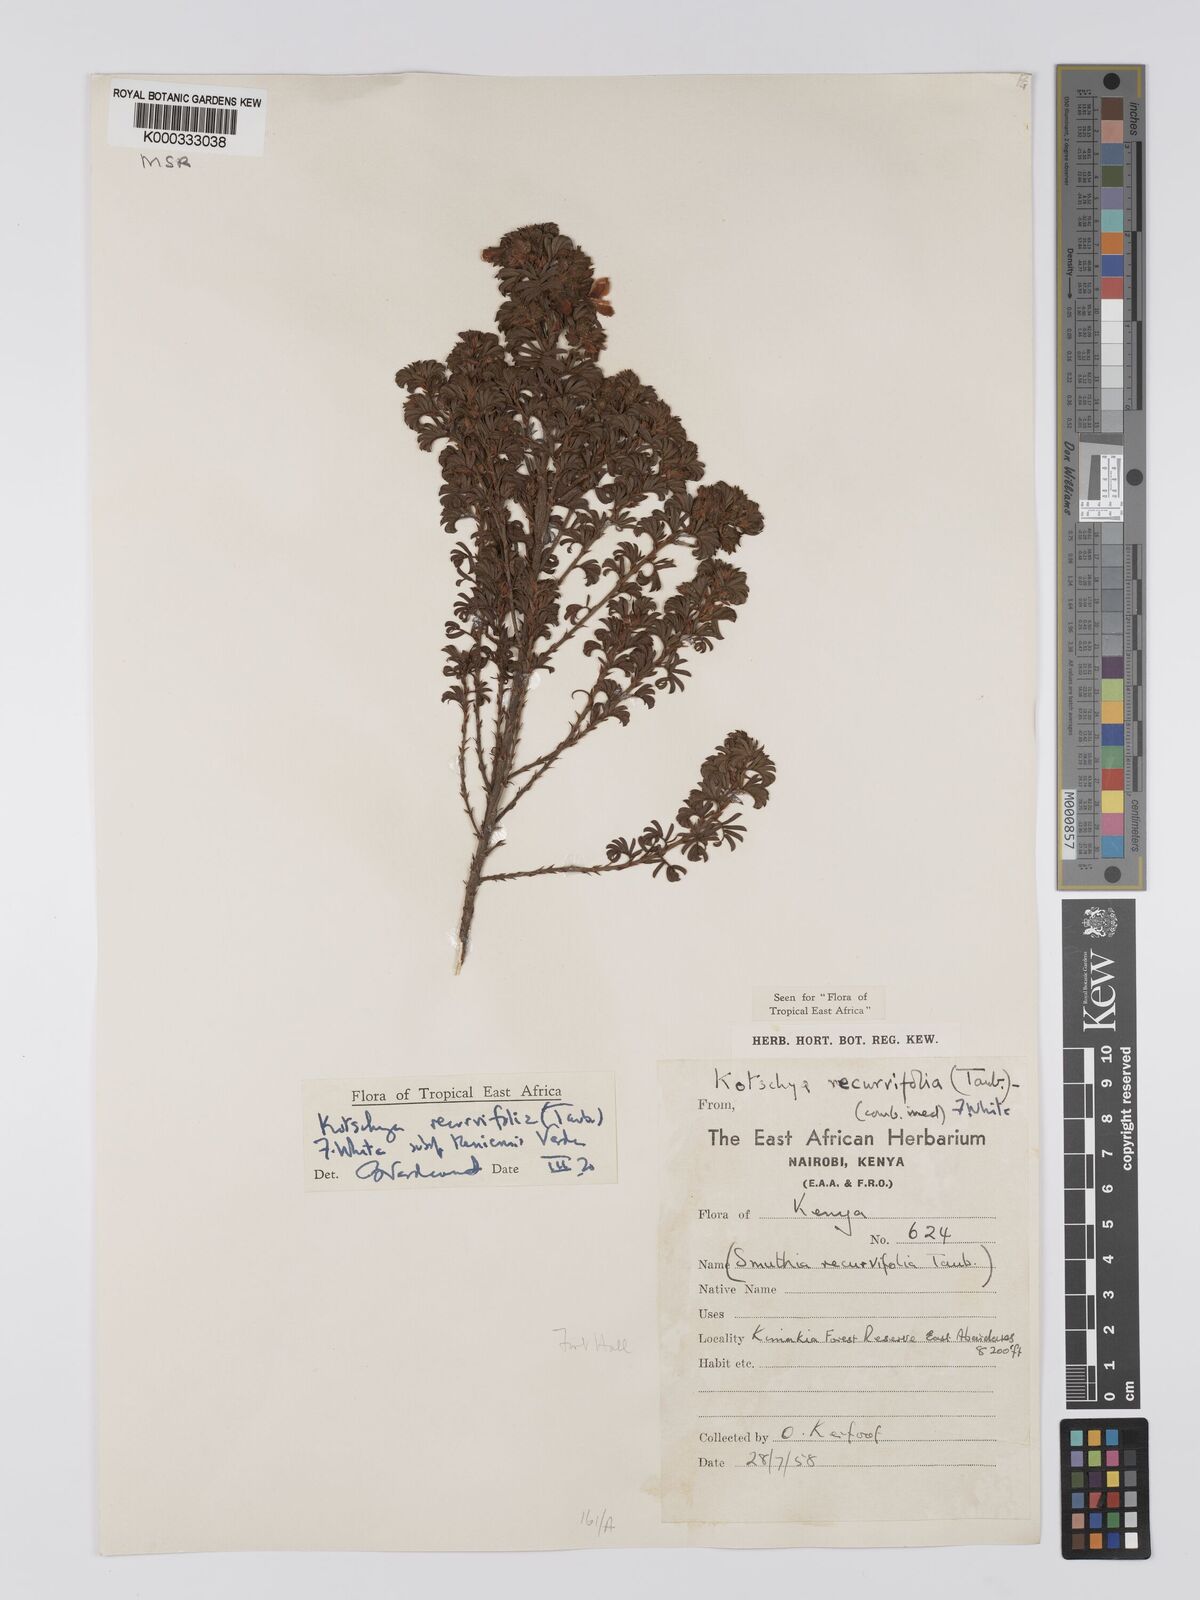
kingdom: Plantae
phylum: Tracheophyta
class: Magnoliopsida
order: Fabales
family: Fabaceae
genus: Kotschya
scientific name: Kotschya recurvifolia
